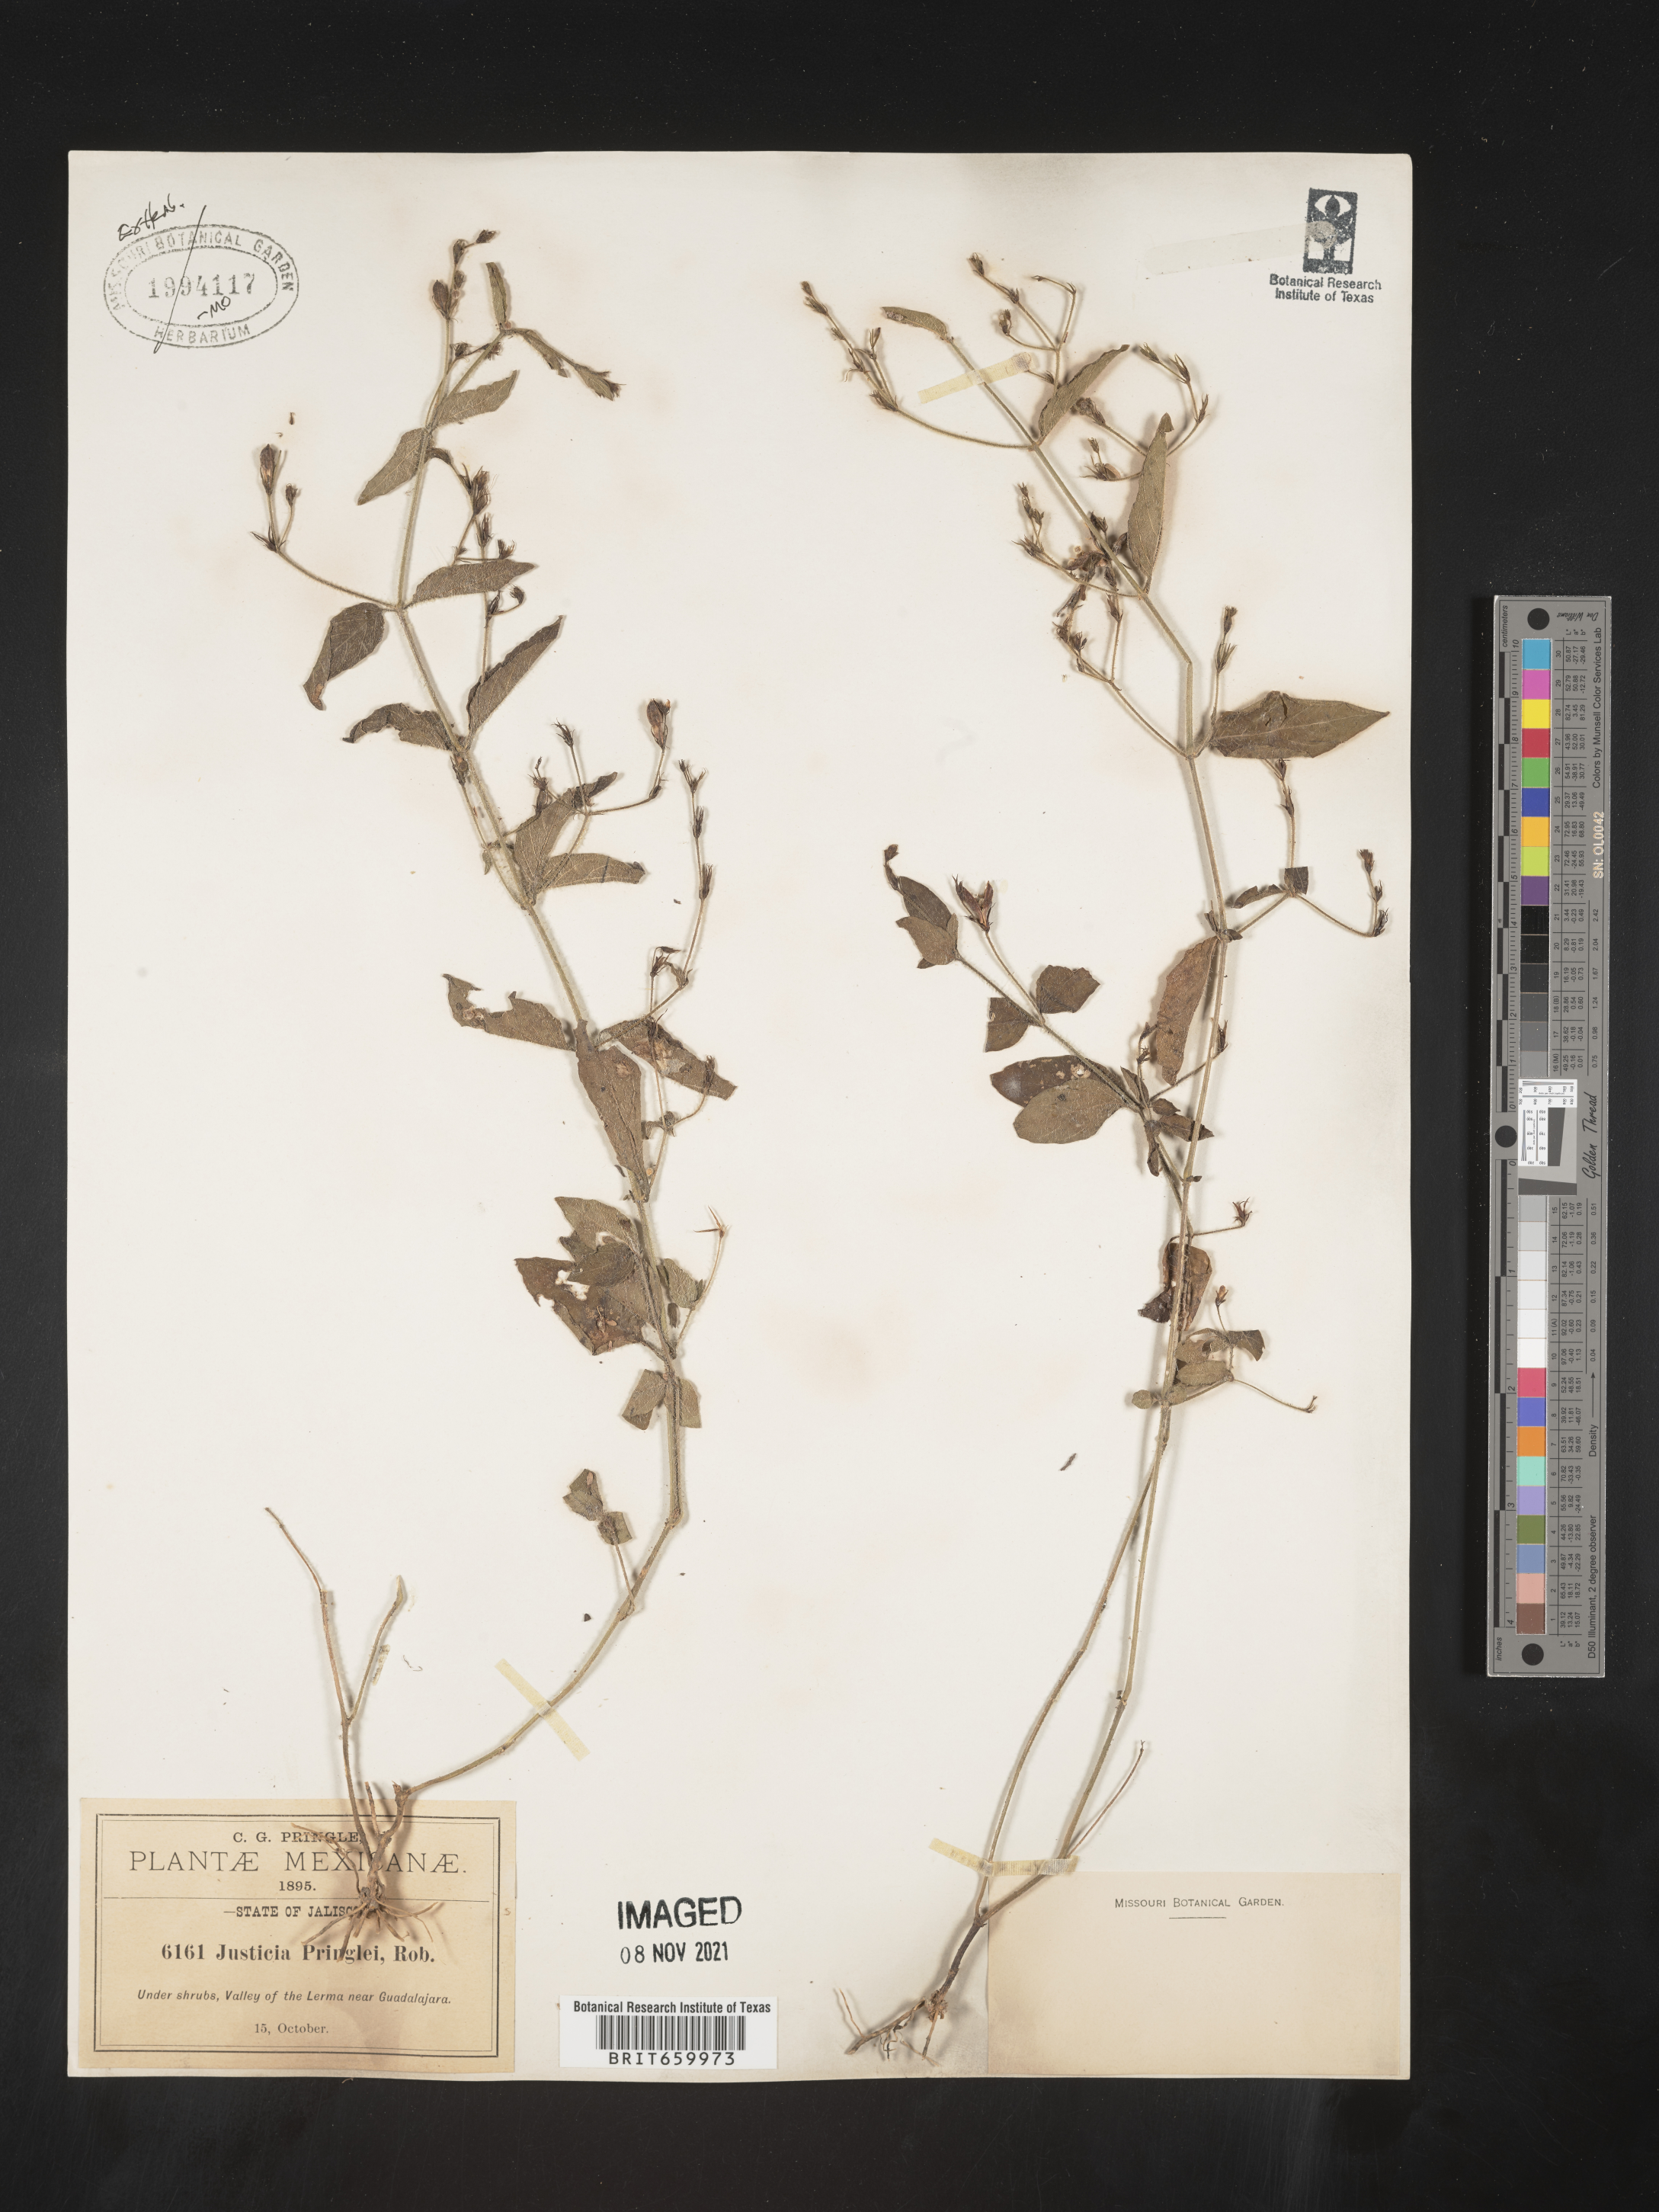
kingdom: Plantae
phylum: Tracheophyta
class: Magnoliopsida
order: Lamiales
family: Acanthaceae
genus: Justicia
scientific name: Justicia
